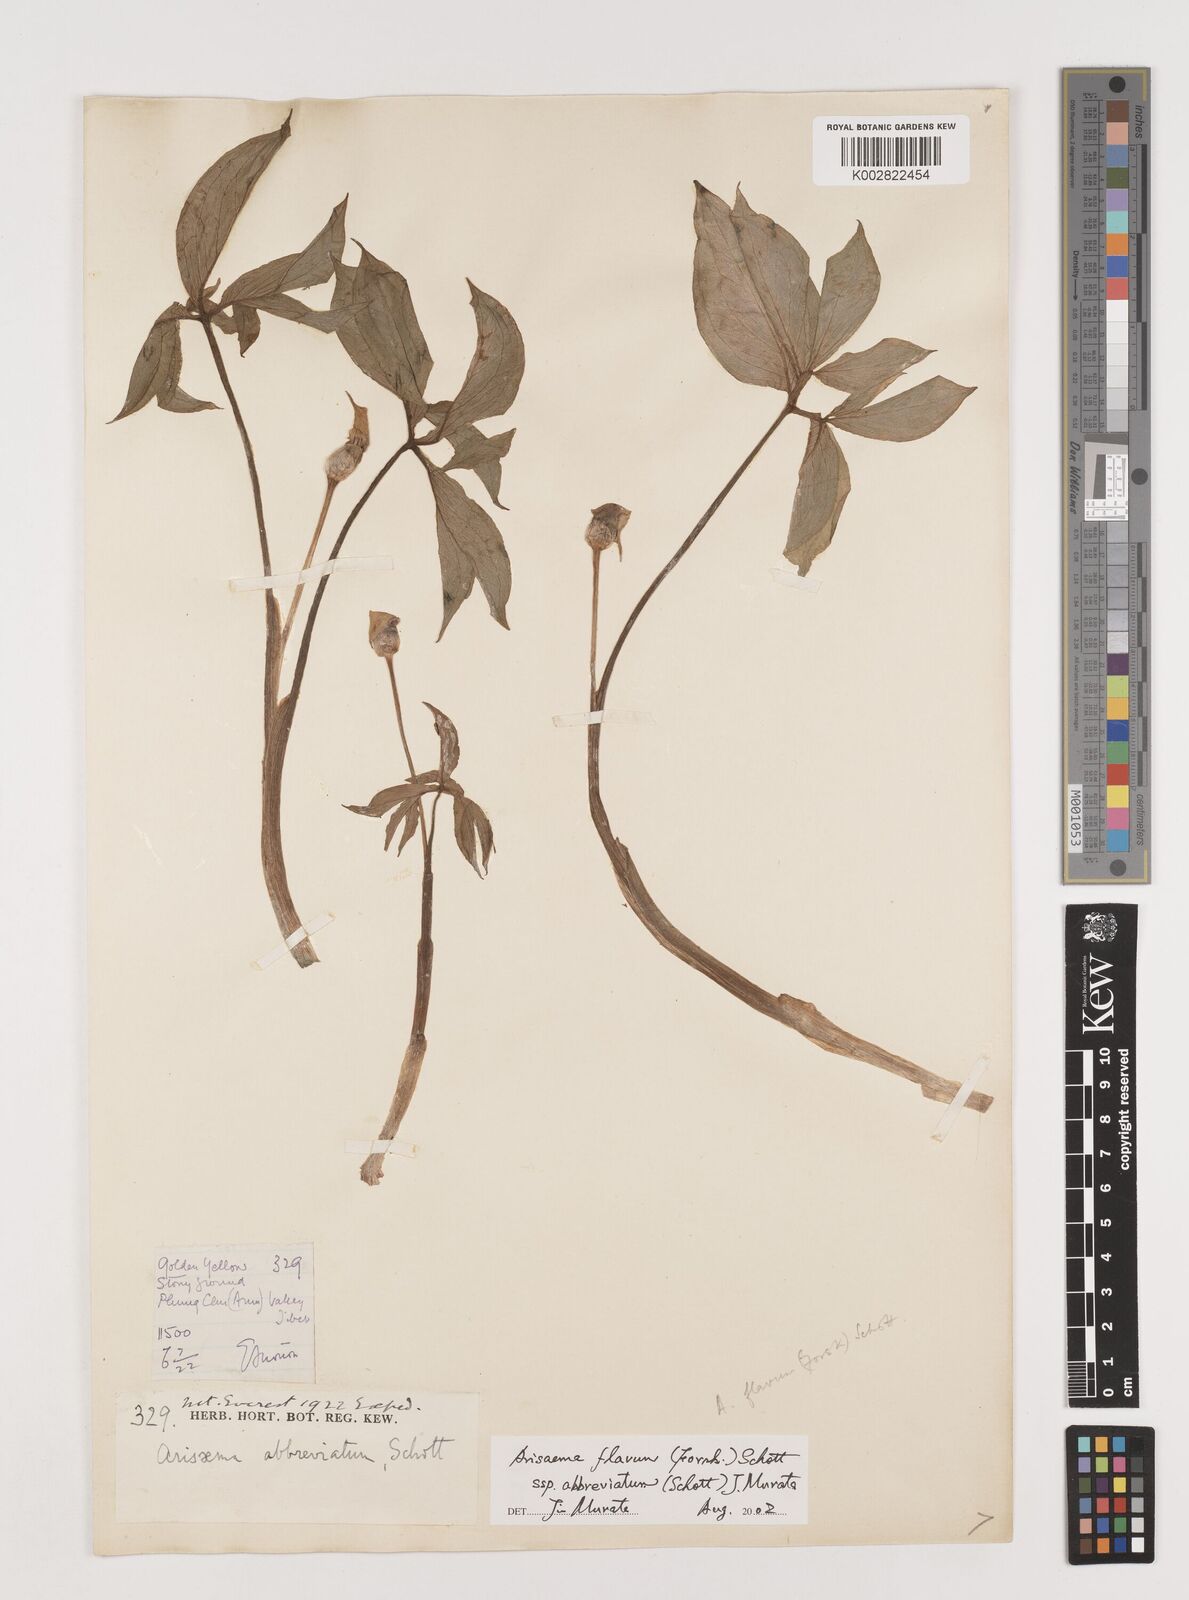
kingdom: Plantae
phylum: Tracheophyta
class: Liliopsida
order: Alismatales
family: Araceae
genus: Arisaema
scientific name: Arisaema flavum
